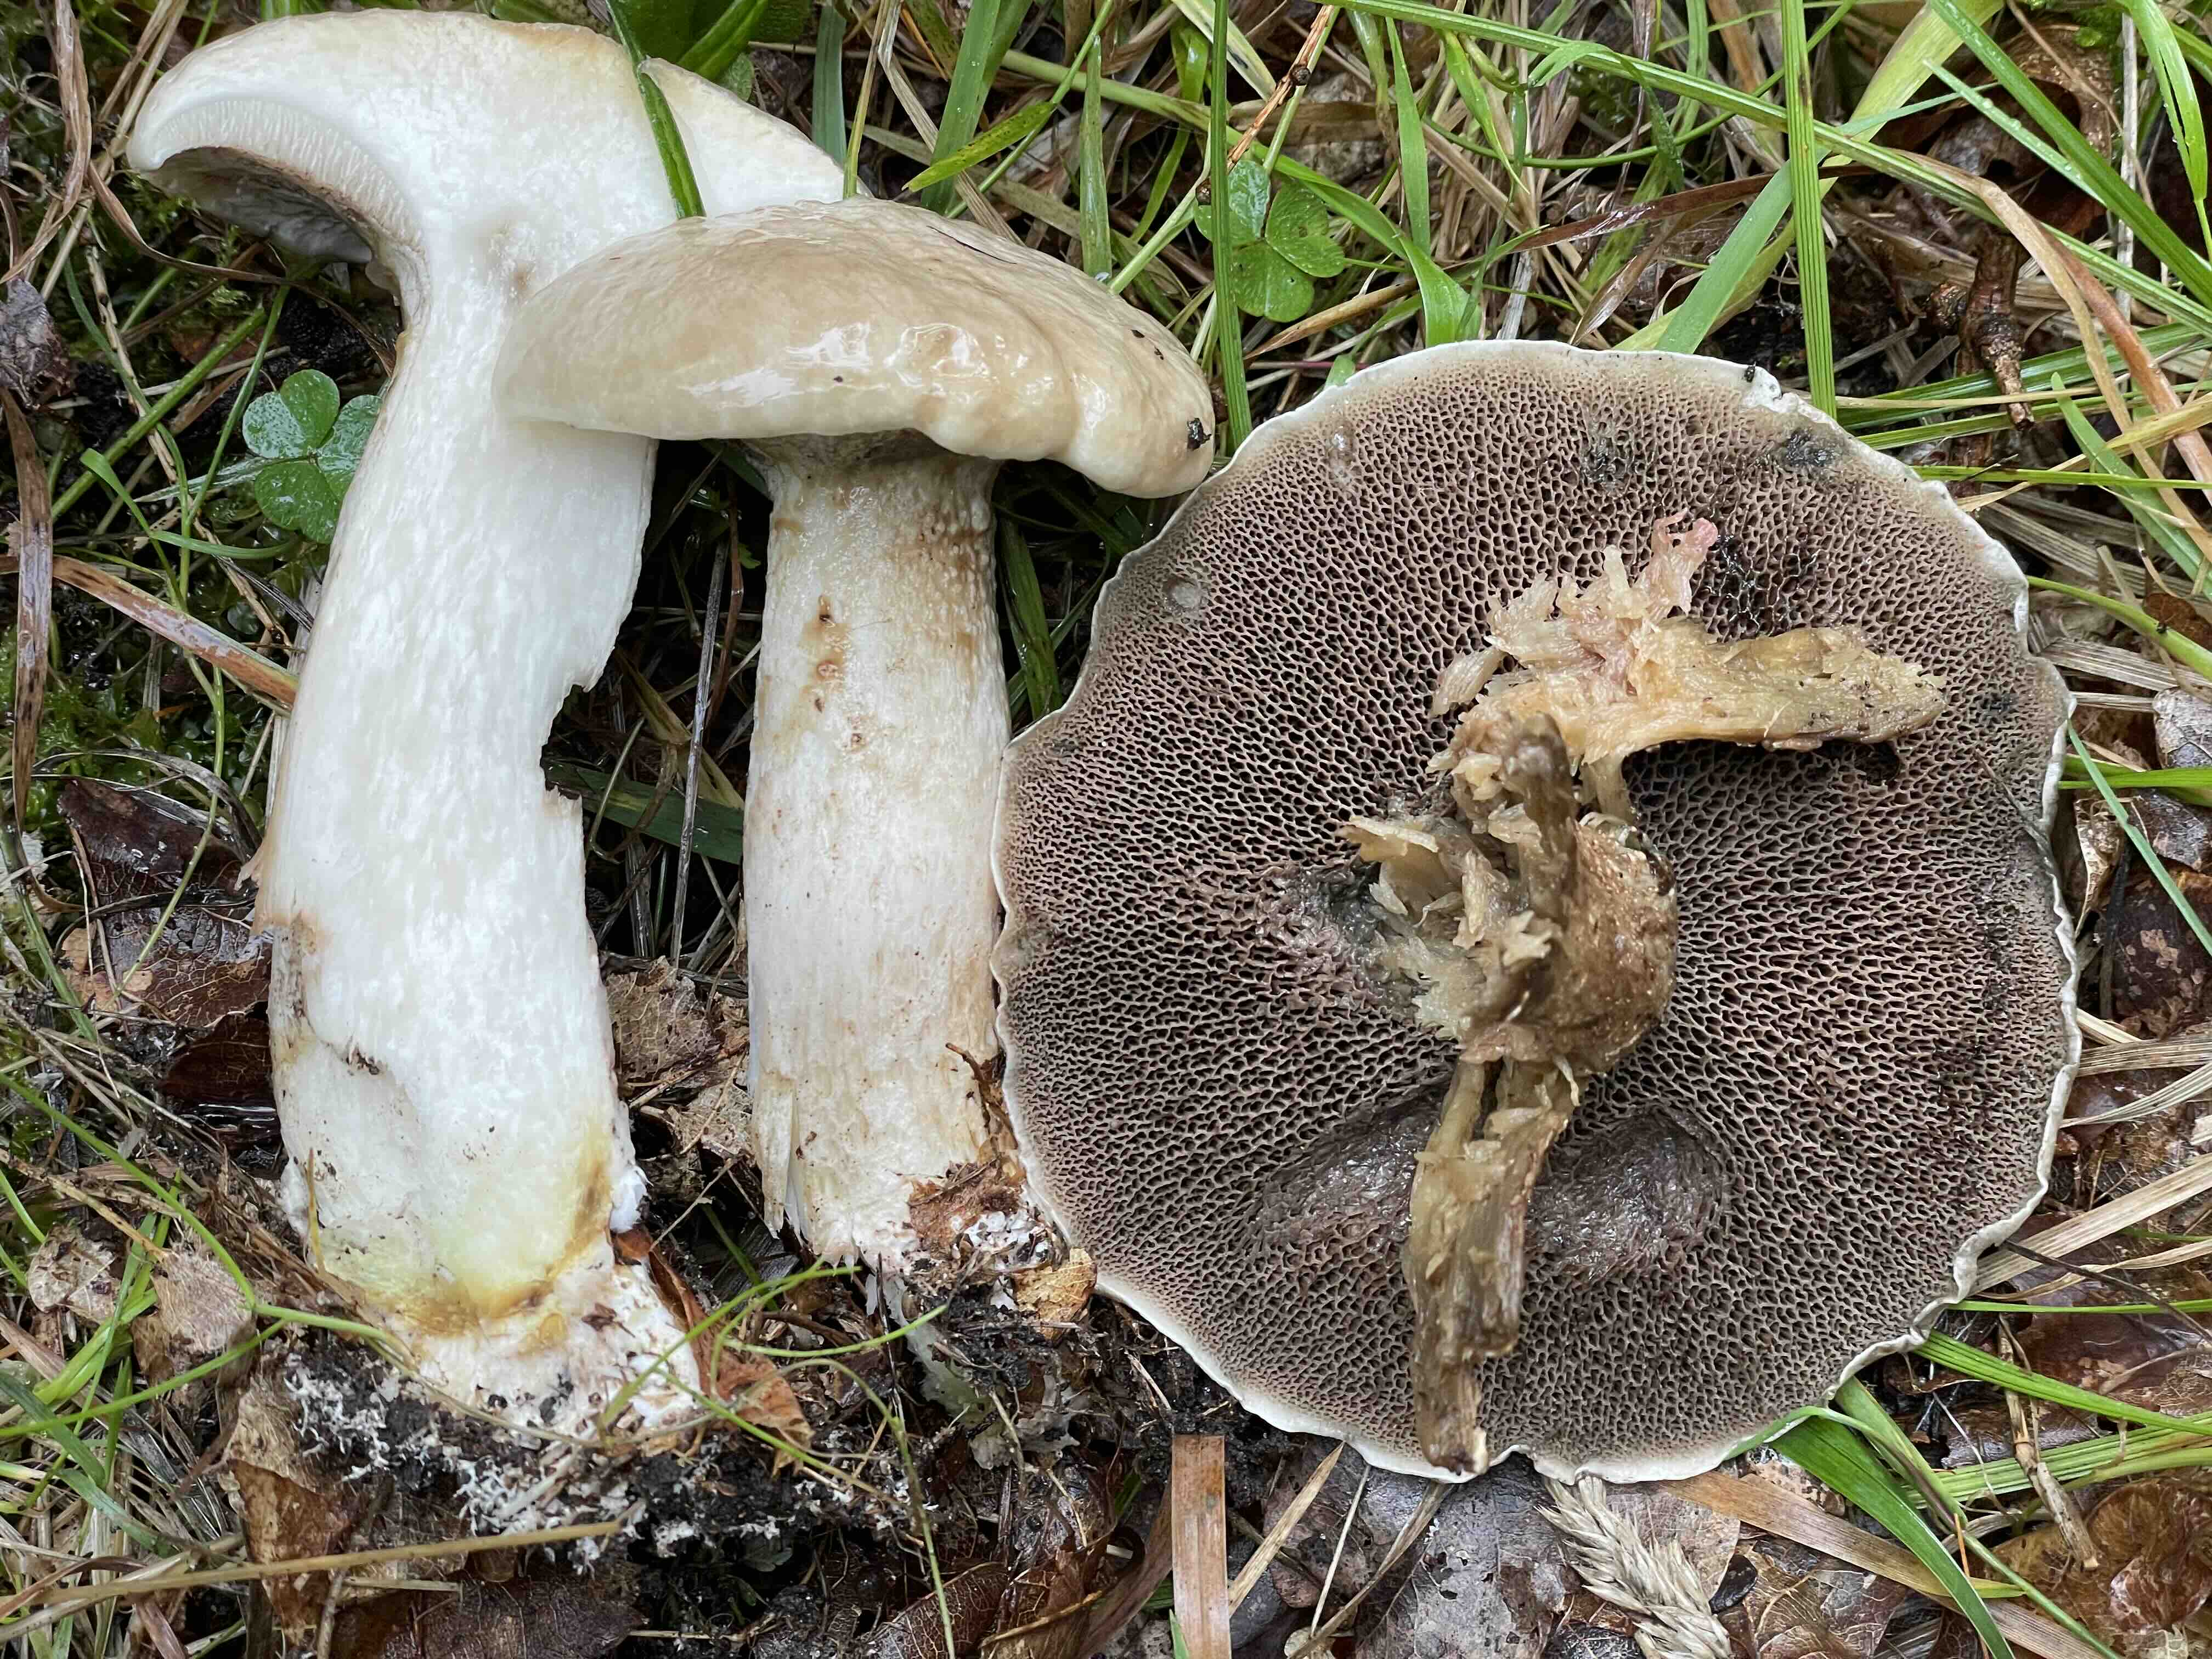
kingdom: Fungi
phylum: Basidiomycota
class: Agaricomycetes
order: Boletales
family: Suillaceae
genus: Suillus
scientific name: Suillus viscidus
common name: olivengrå slimrørhat
